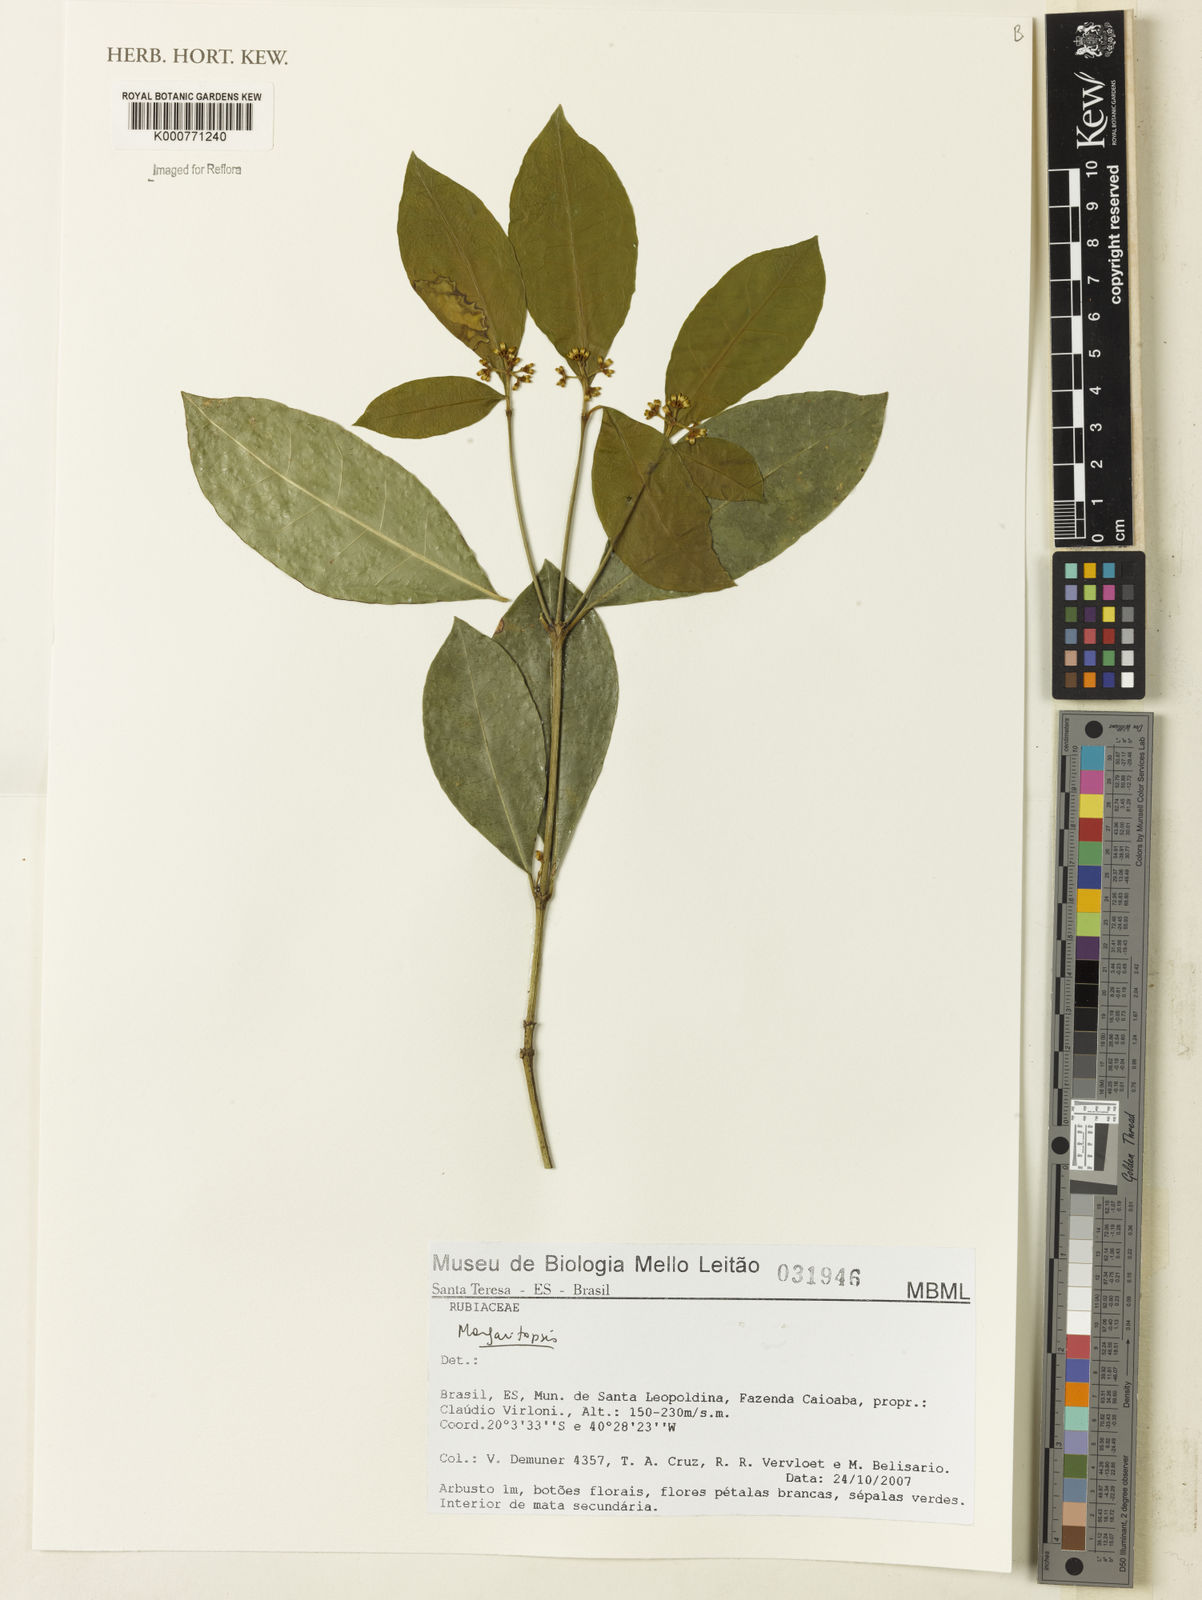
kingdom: Plantae
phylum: Tracheophyta
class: Magnoliopsida
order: Gentianales
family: Rubiaceae
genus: Eumachia
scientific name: Eumachia
